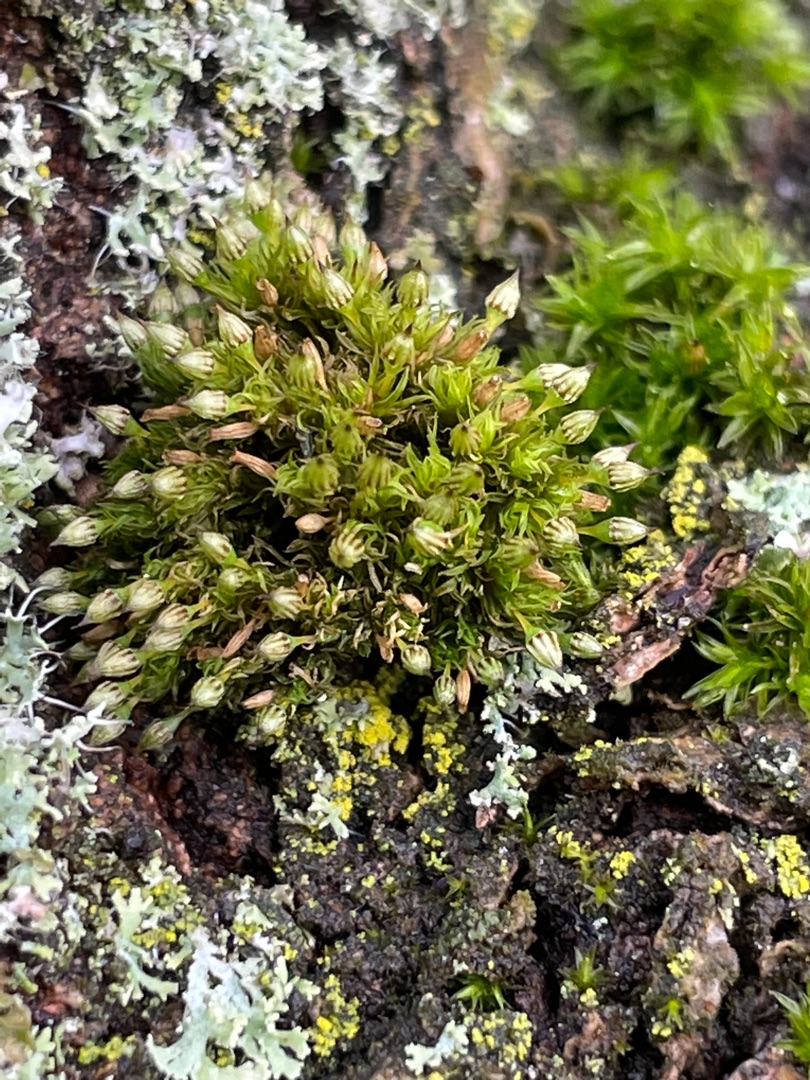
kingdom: Plantae
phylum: Bryophyta
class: Bryopsida
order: Orthotrichales
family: Orthotrichaceae
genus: Orthotrichum
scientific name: Orthotrichum pulchellum
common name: Smuk furehætte
